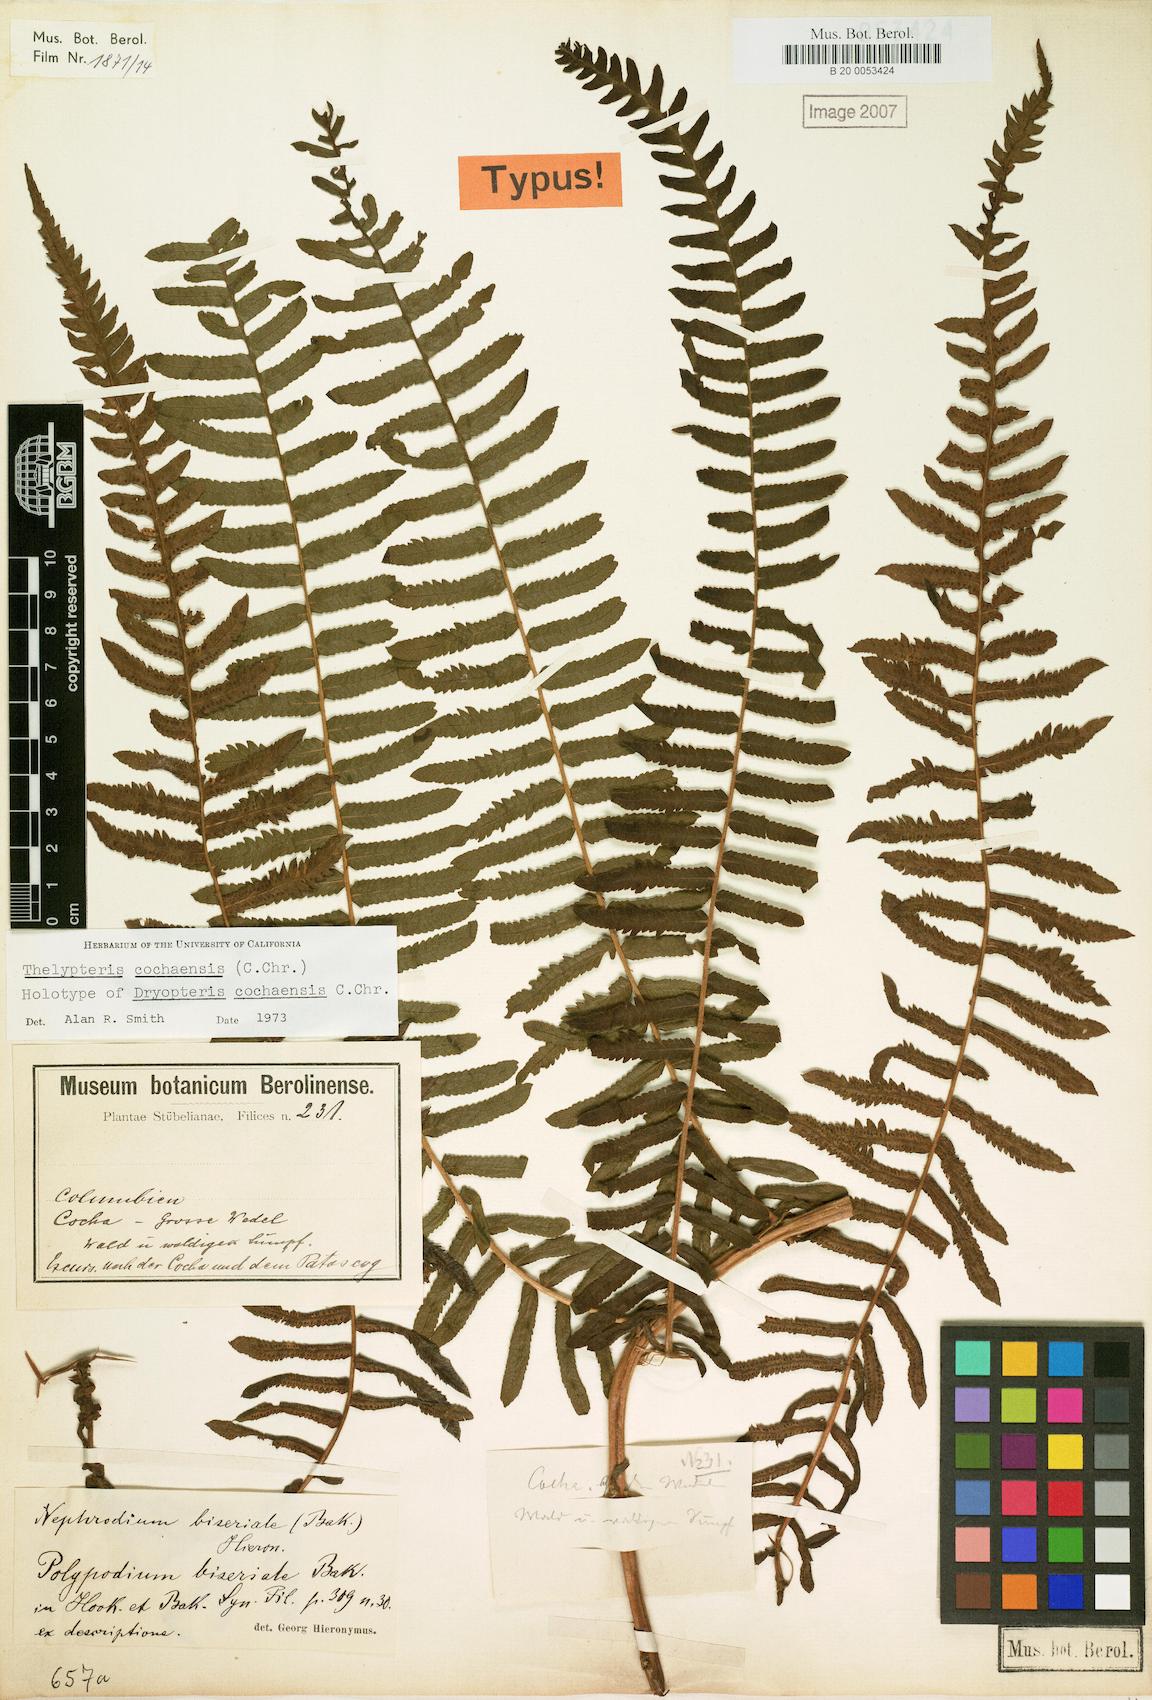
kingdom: Plantae
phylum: Tracheophyta
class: Polypodiopsida
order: Polypodiales
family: Thelypteridaceae
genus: Amauropelta
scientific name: Amauropelta cochaensis
